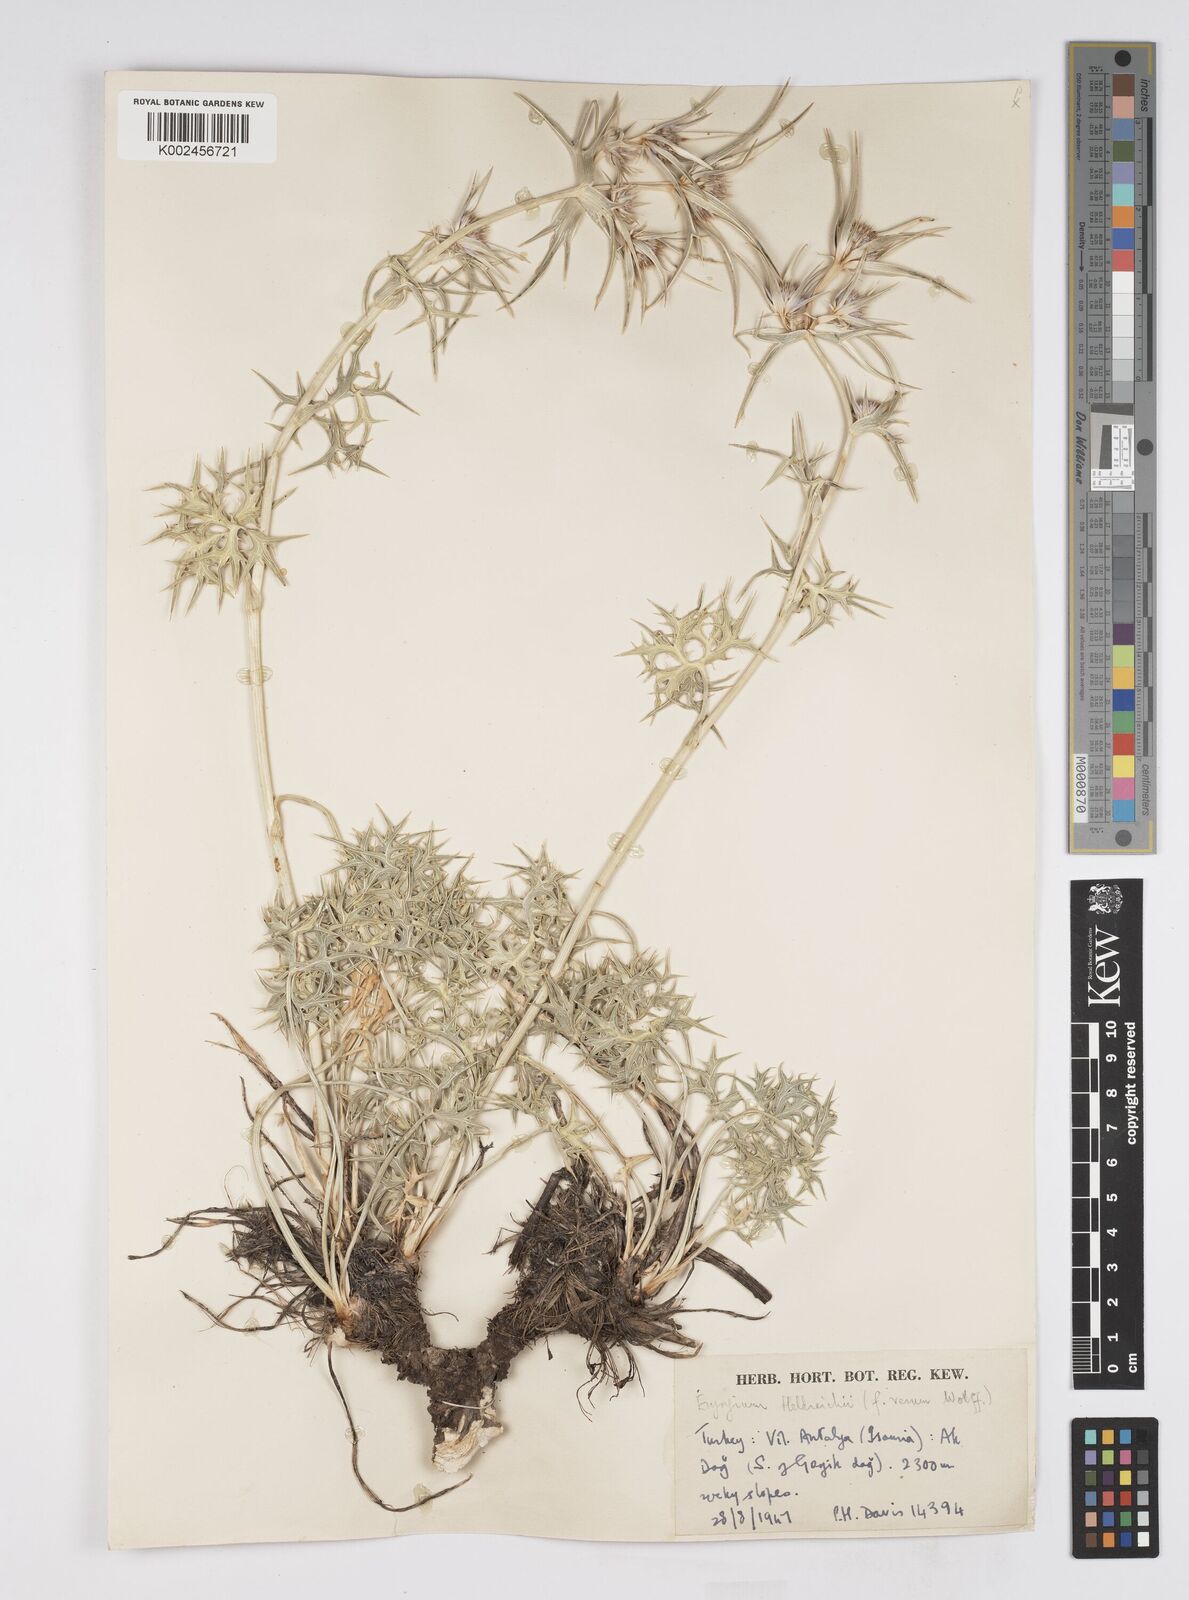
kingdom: Plantae
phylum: Tracheophyta
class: Magnoliopsida
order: Apiales
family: Apiaceae
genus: Eryngium
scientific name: Eryngium heldreichii
